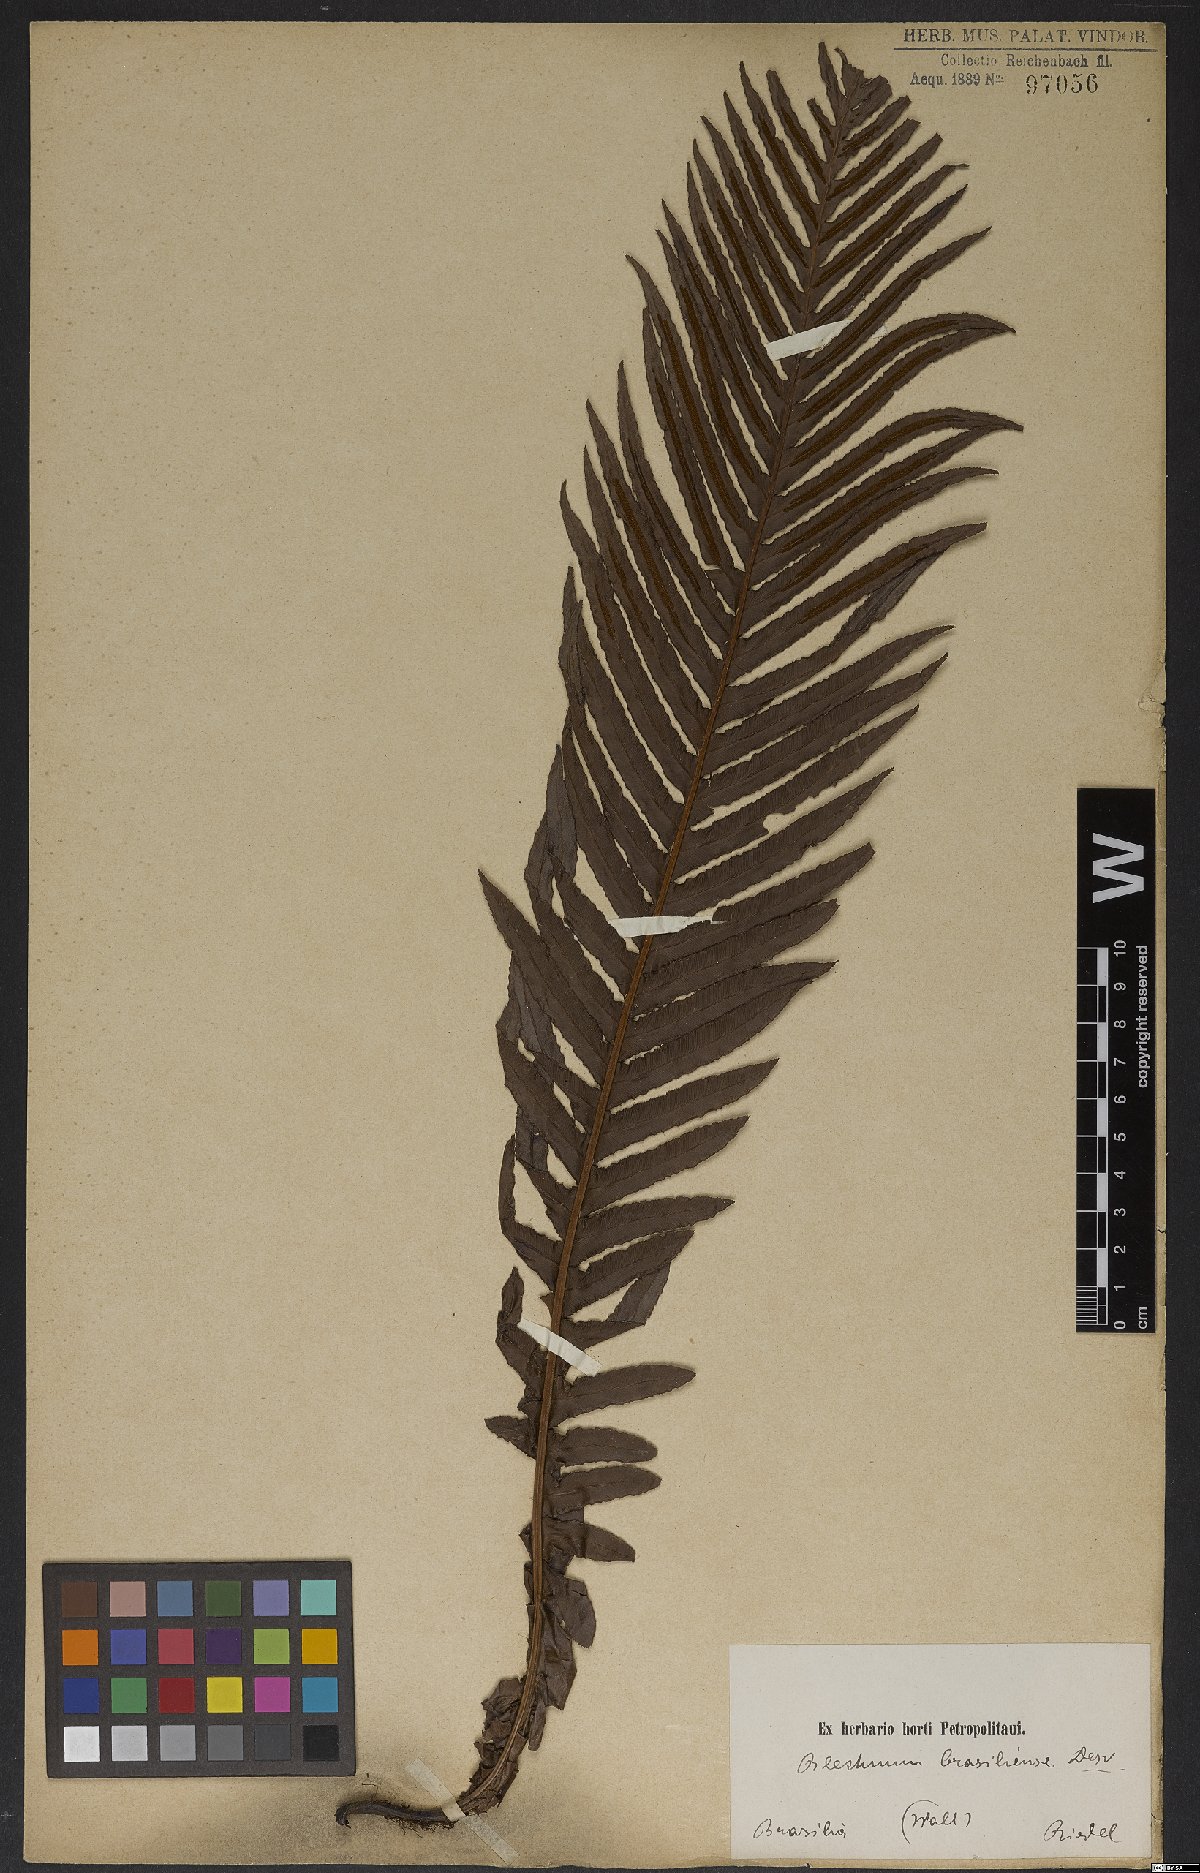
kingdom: Plantae
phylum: Tracheophyta
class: Polypodiopsida
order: Polypodiales
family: Blechnaceae
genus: Neoblechnum
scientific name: Neoblechnum brasiliense
